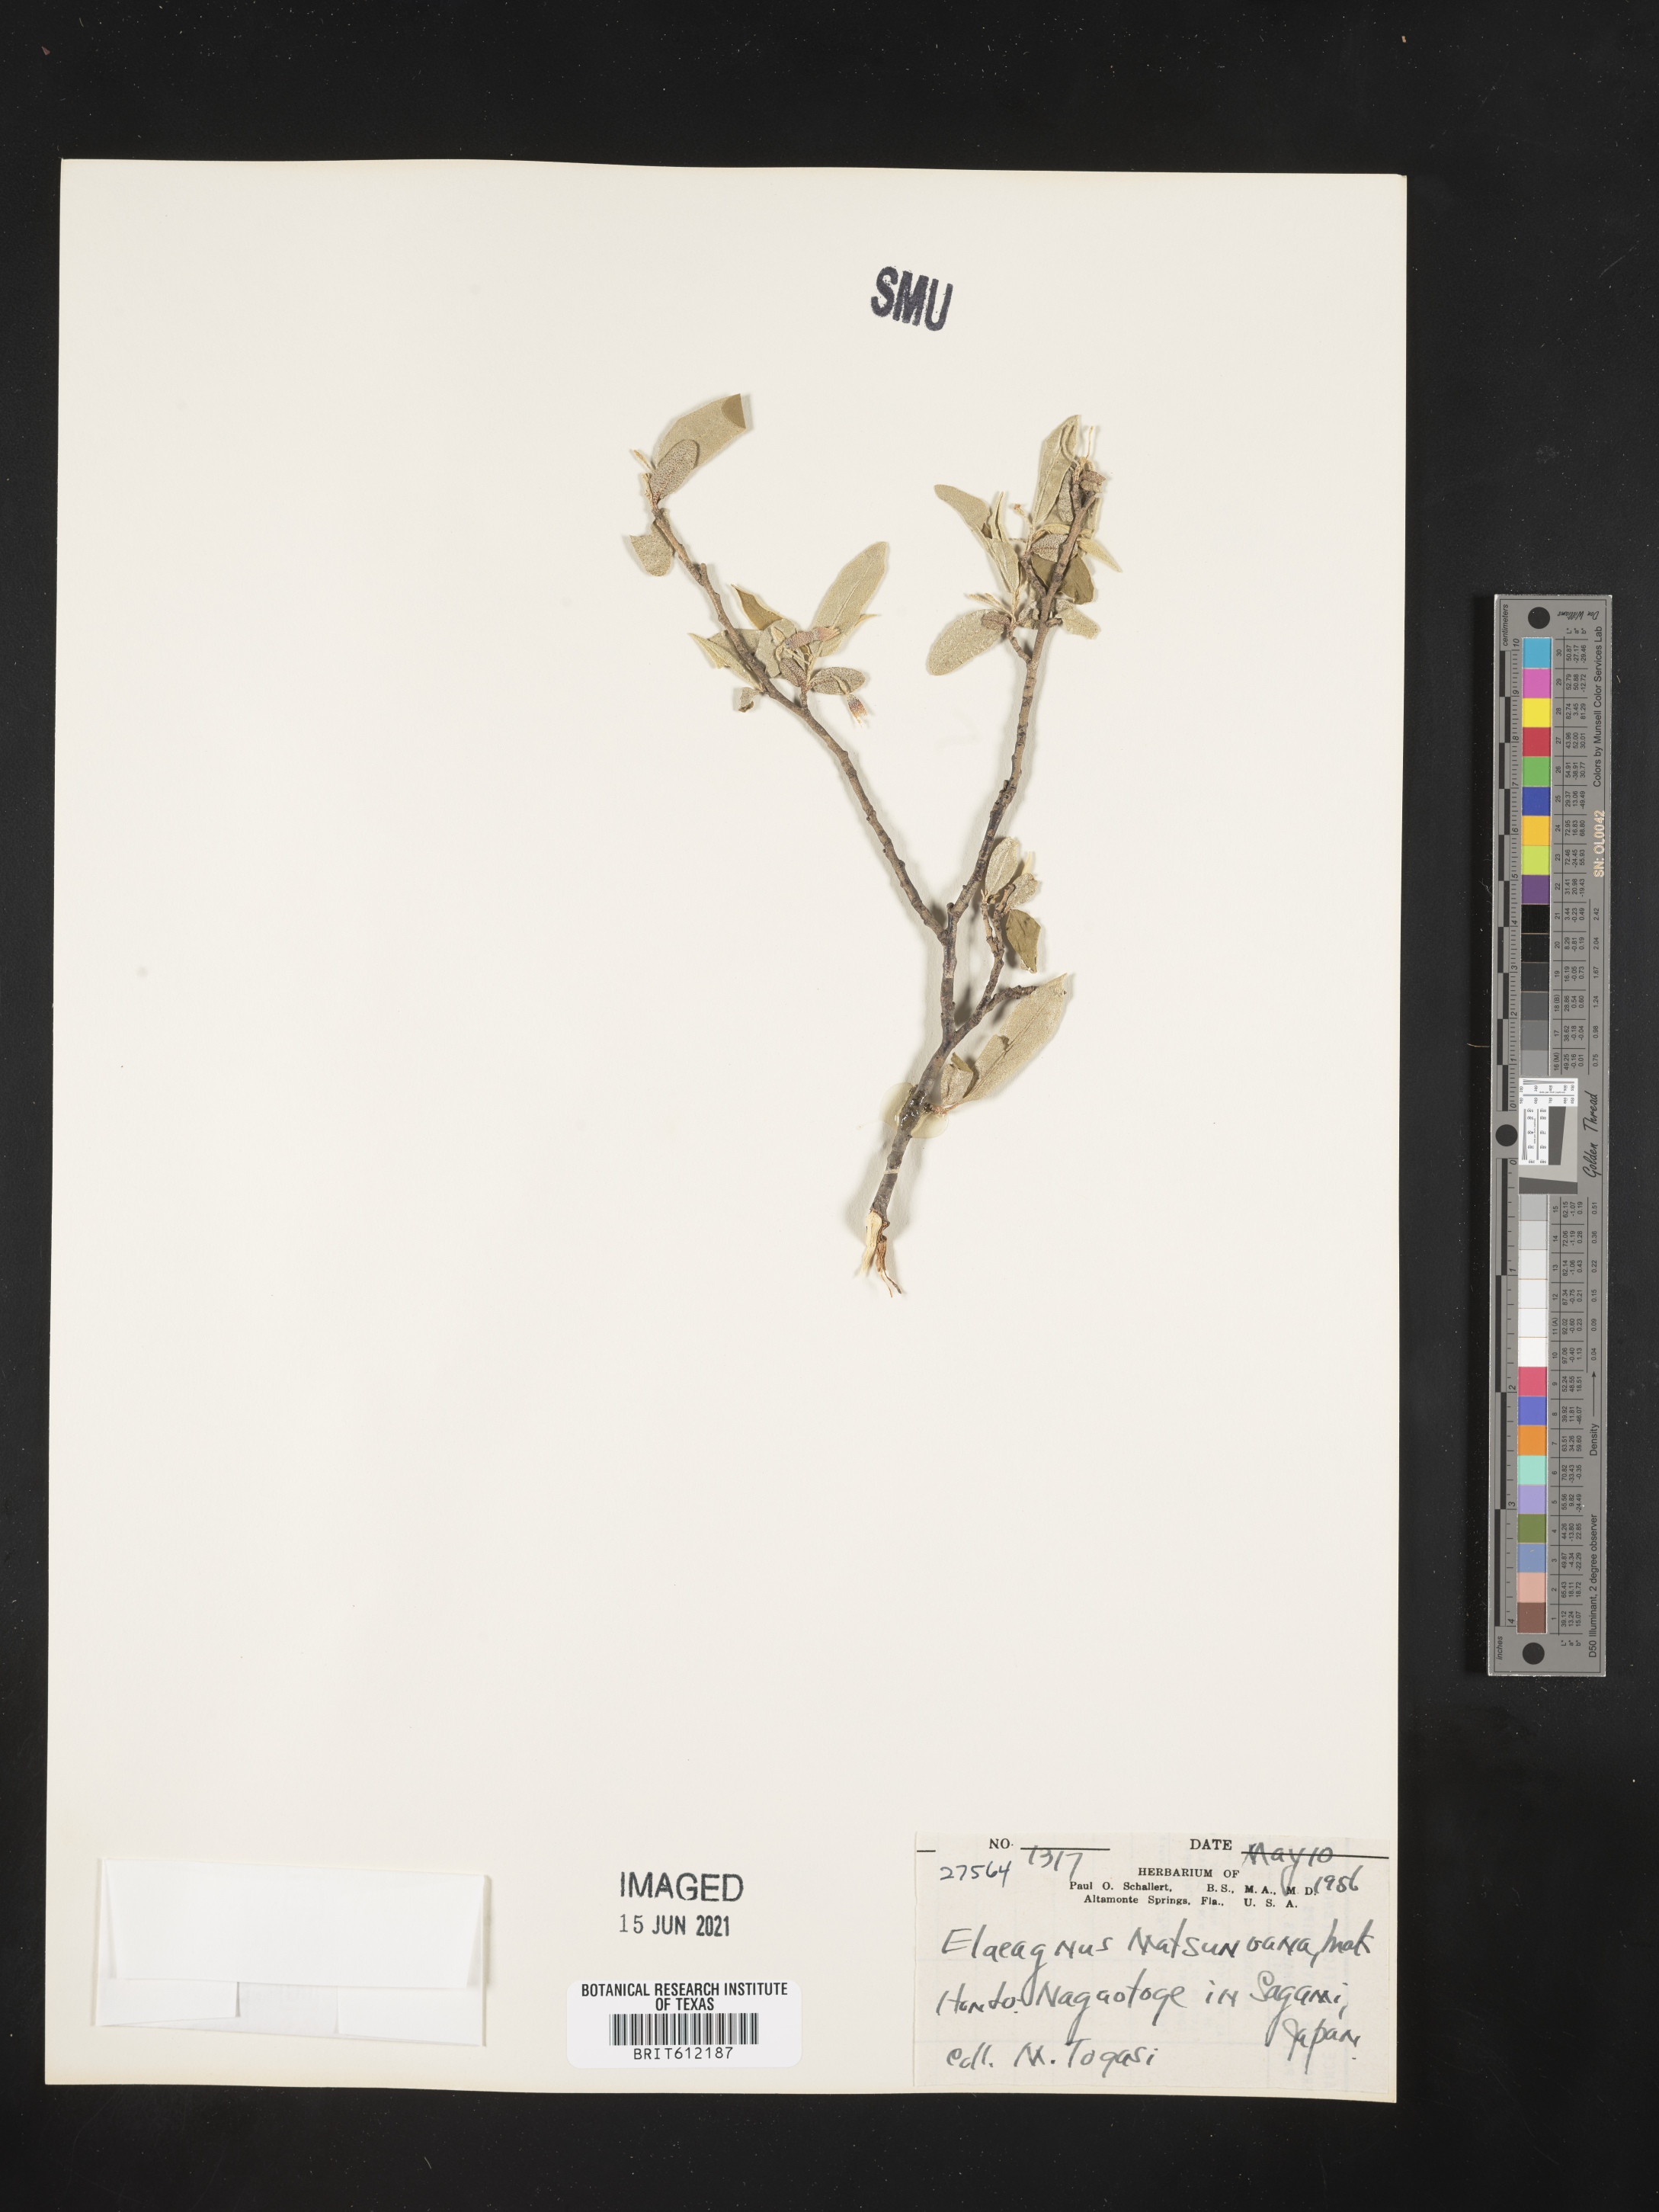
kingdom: Plantae
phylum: Tracheophyta
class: Magnoliopsida
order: Rosales
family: Elaeagnaceae
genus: Elaeagnus
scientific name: Elaeagnus matsunoana
